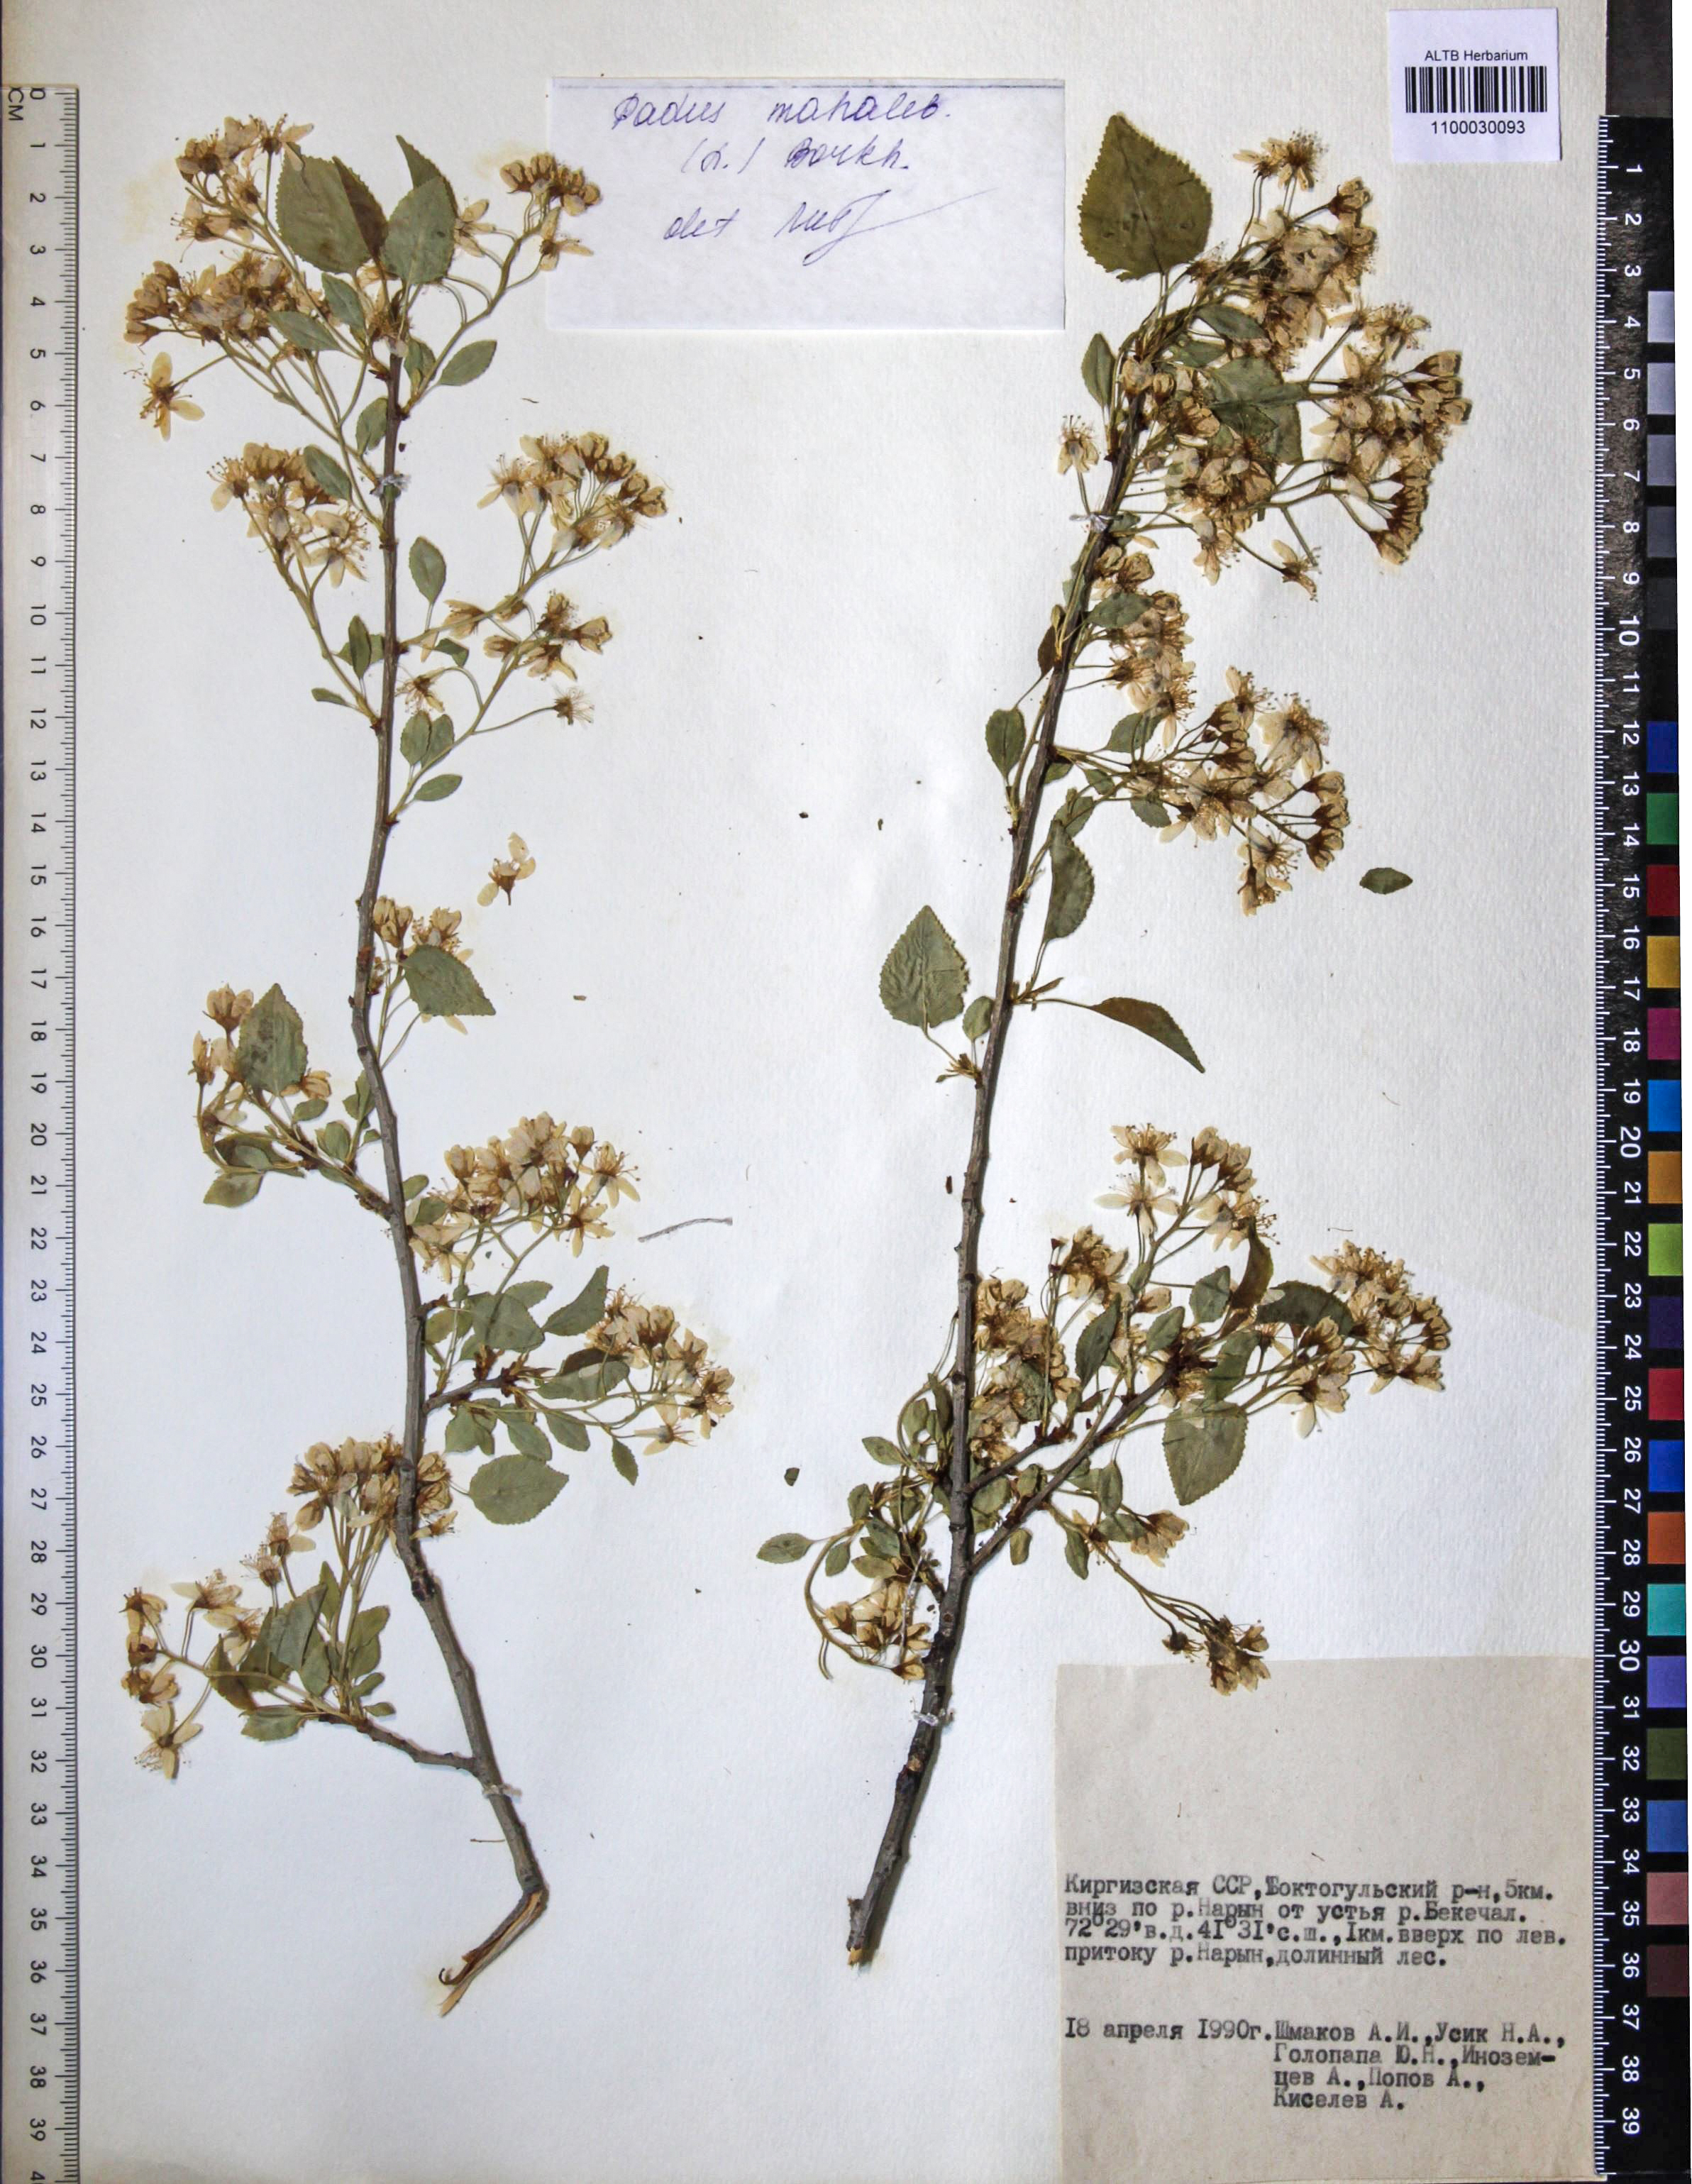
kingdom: Plantae
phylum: Tracheophyta
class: Magnoliopsida
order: Rosales
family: Rosaceae
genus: Prunus
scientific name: Prunus mahaleb
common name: Mahaleb cherry
